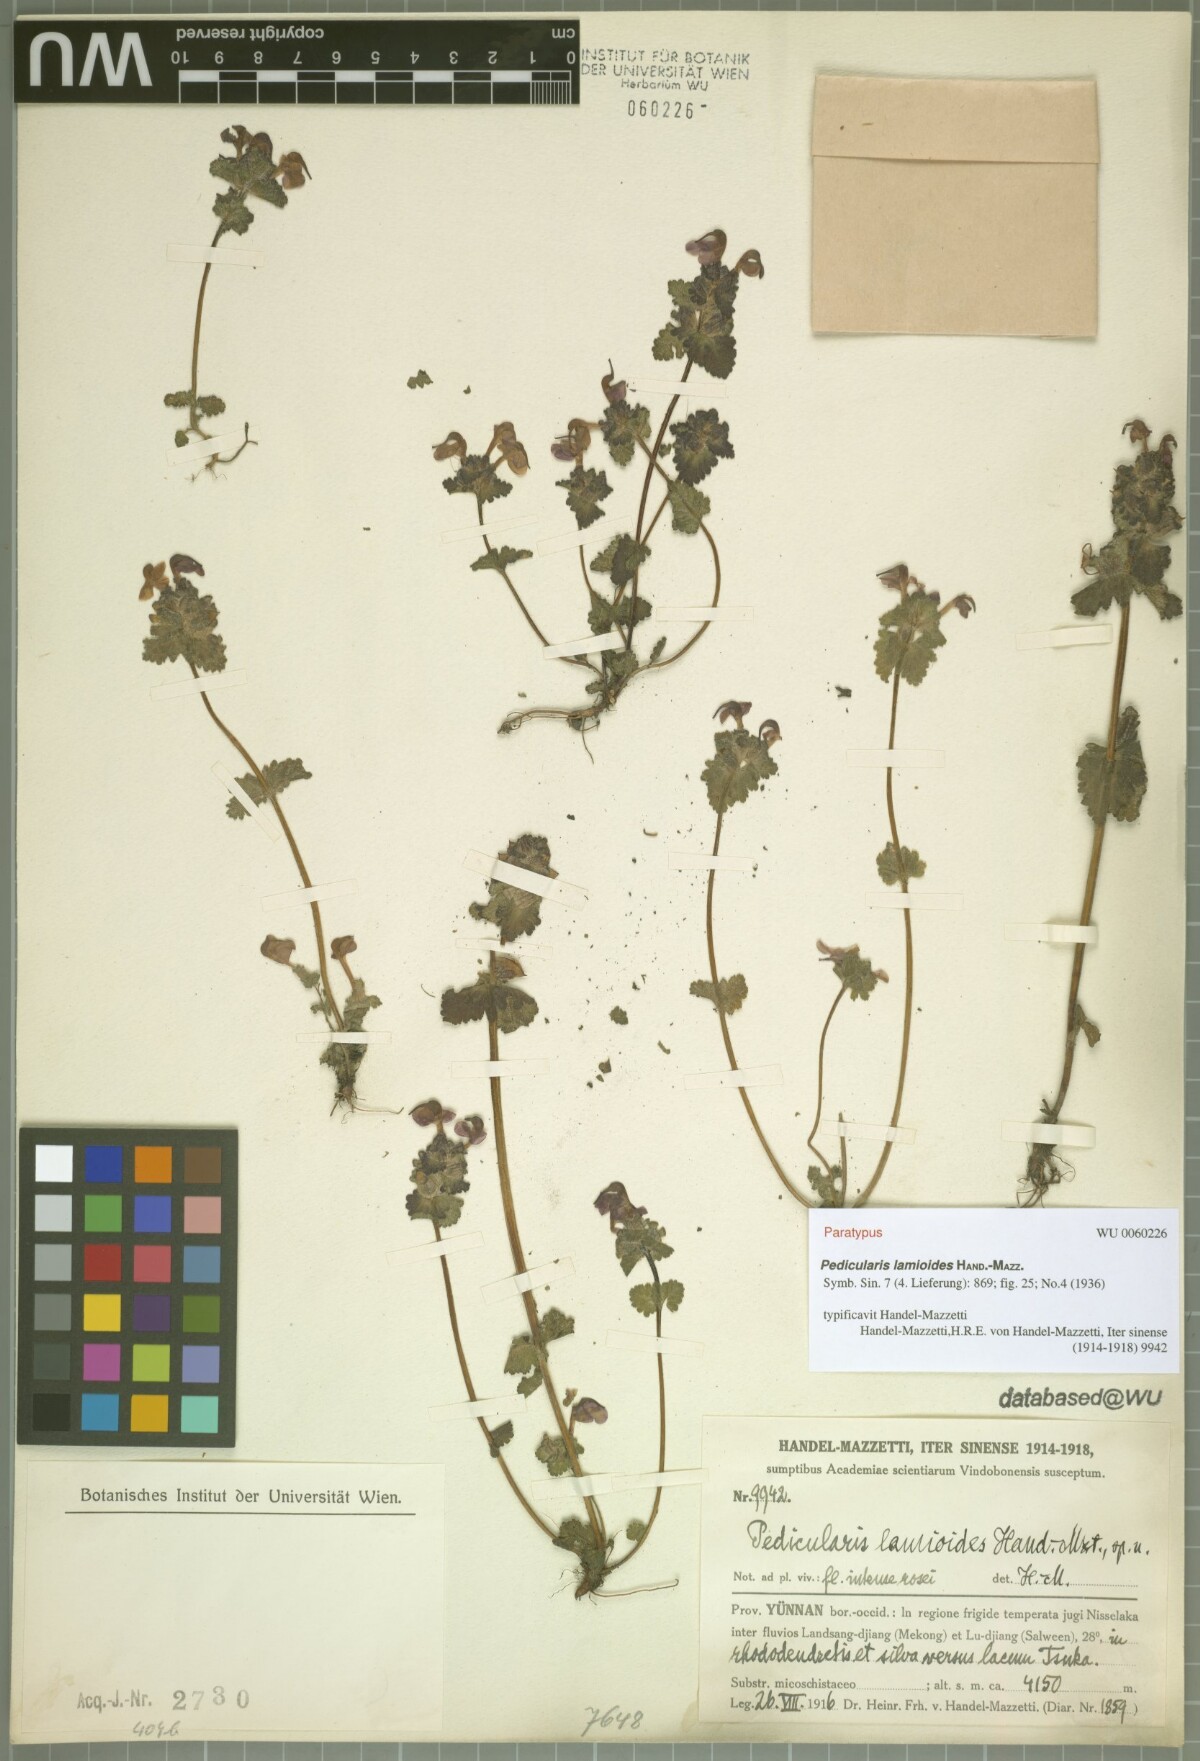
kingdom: Plantae
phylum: Tracheophyta
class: Magnoliopsida
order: Lamiales
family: Orobanchaceae
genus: Pedicularis
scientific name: Pedicularis lamioides
